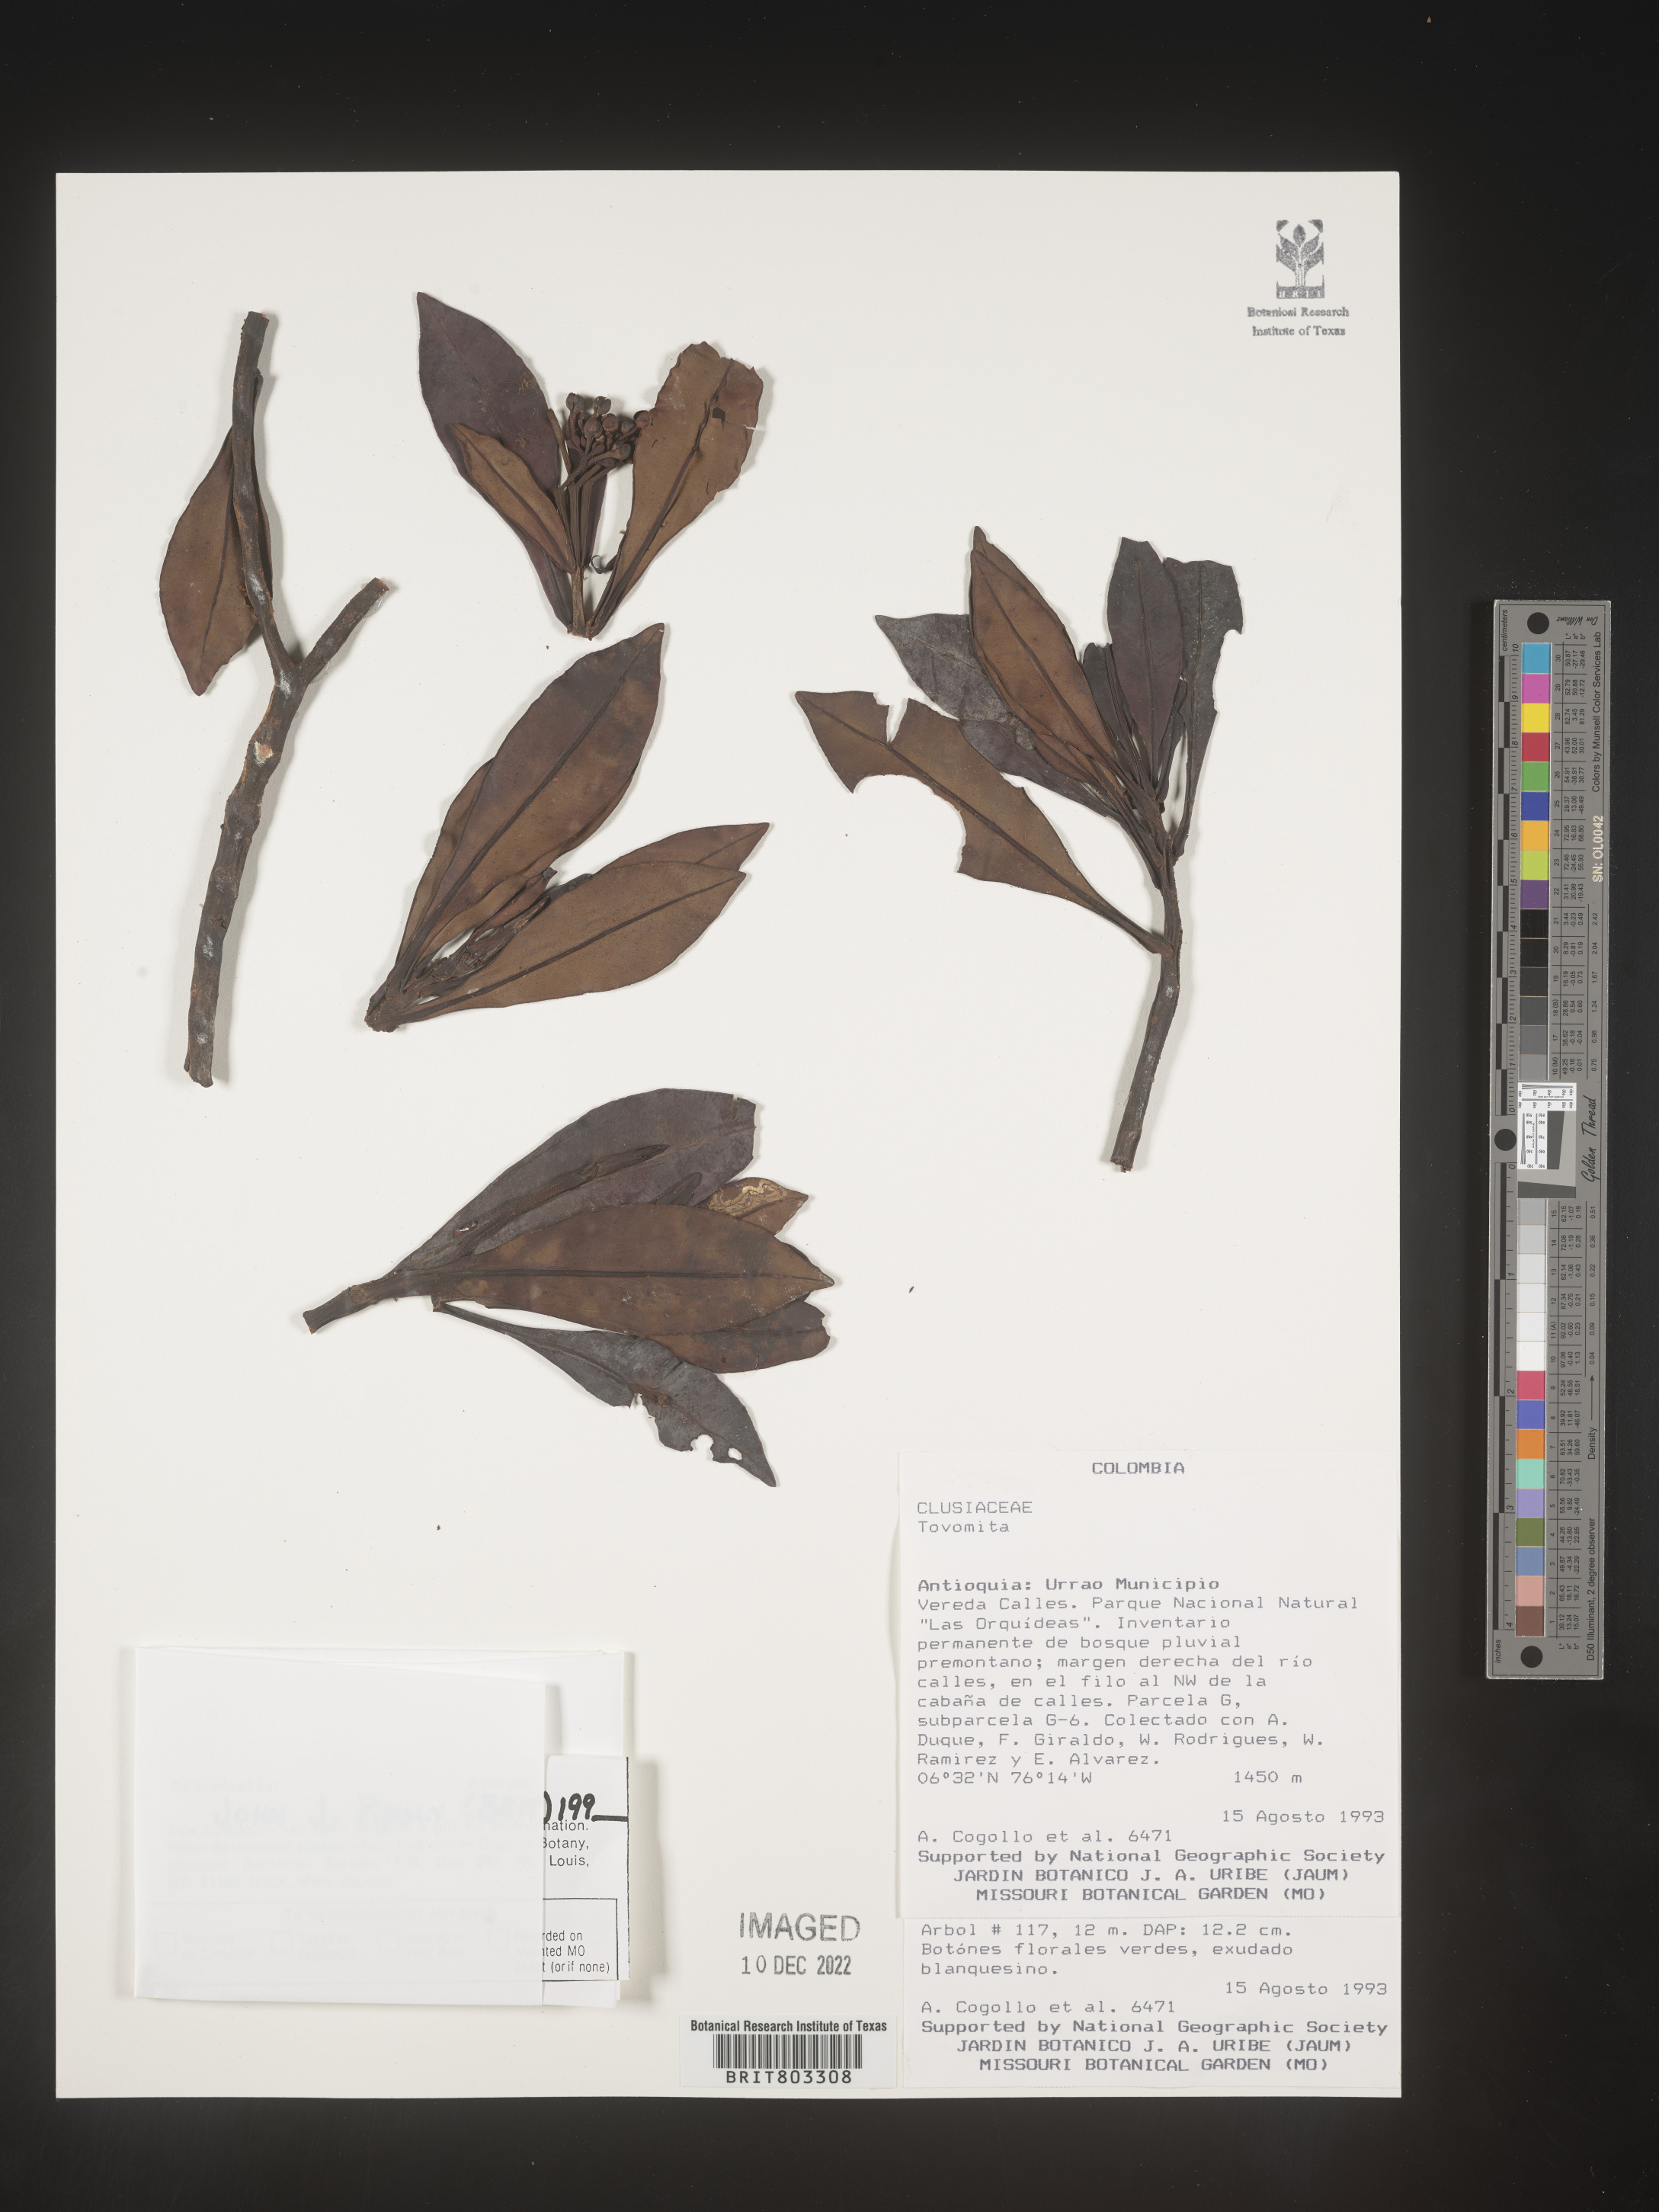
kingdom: Plantae
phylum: Tracheophyta
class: Magnoliopsida
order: Malpighiales
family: Clusiaceae
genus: Tovomita
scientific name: Tovomita
